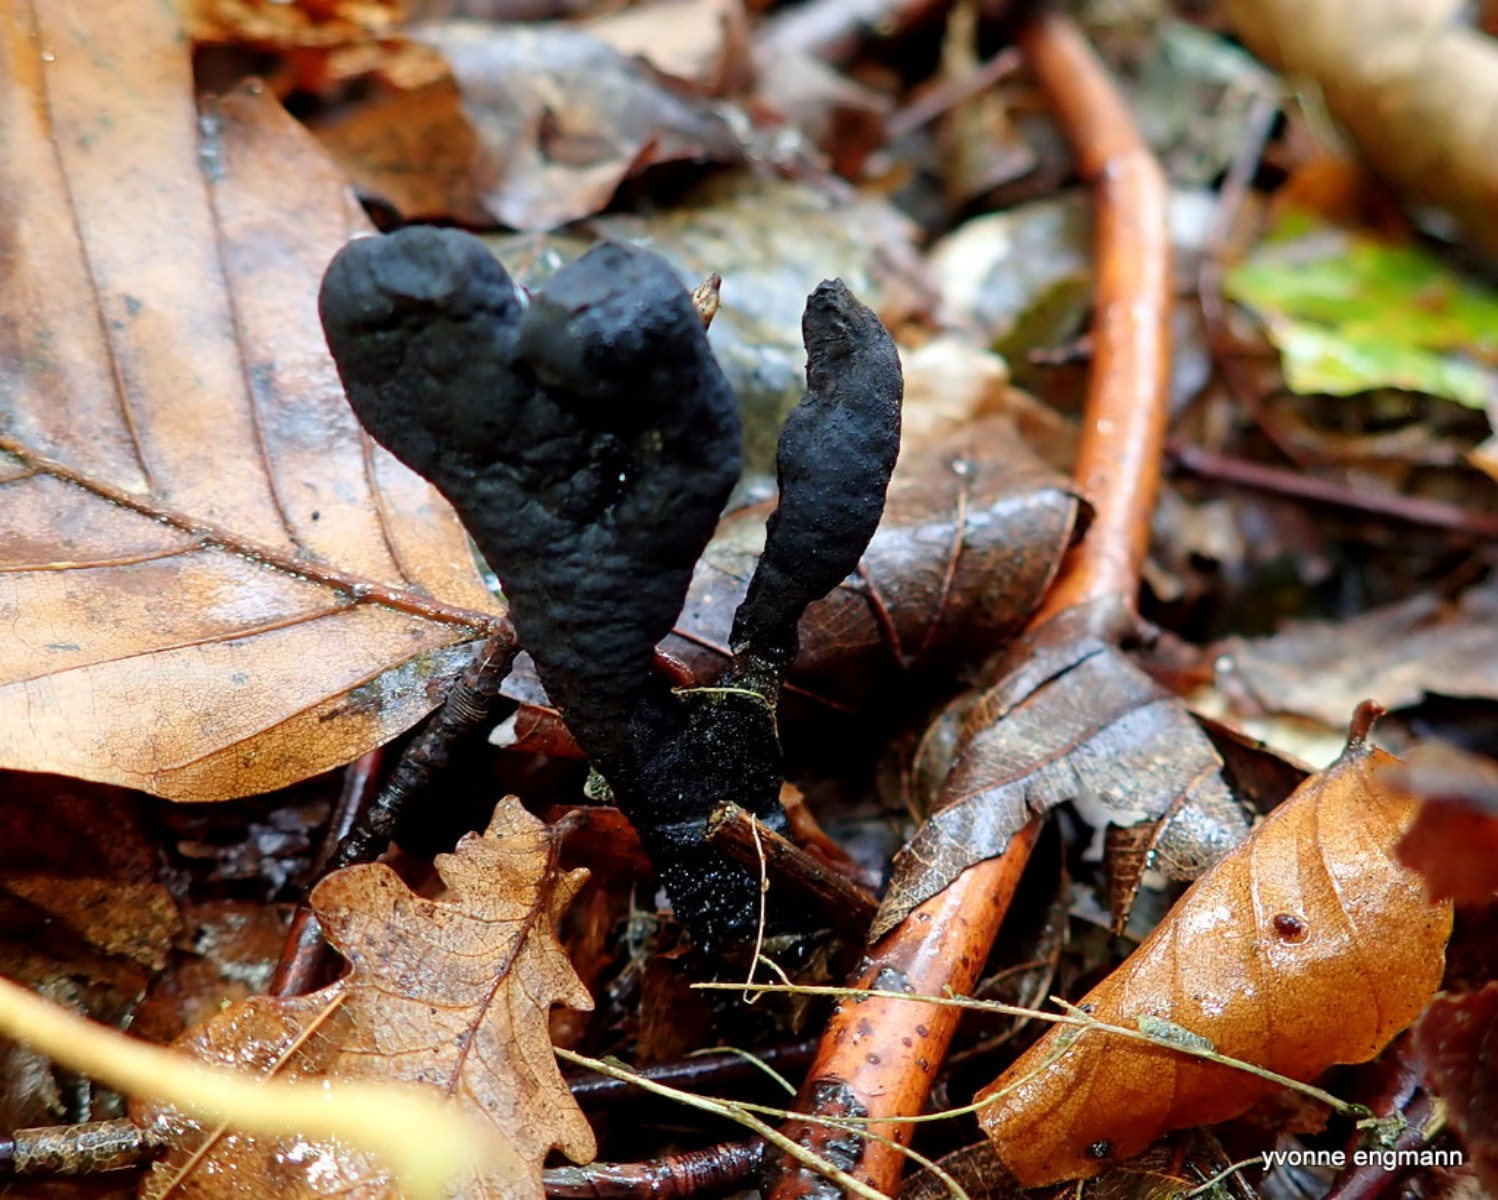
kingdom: Fungi
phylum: Ascomycota
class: Sordariomycetes
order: Xylariales
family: Xylariaceae
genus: Xylaria
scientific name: Xylaria longipes
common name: slank stødsvamp
